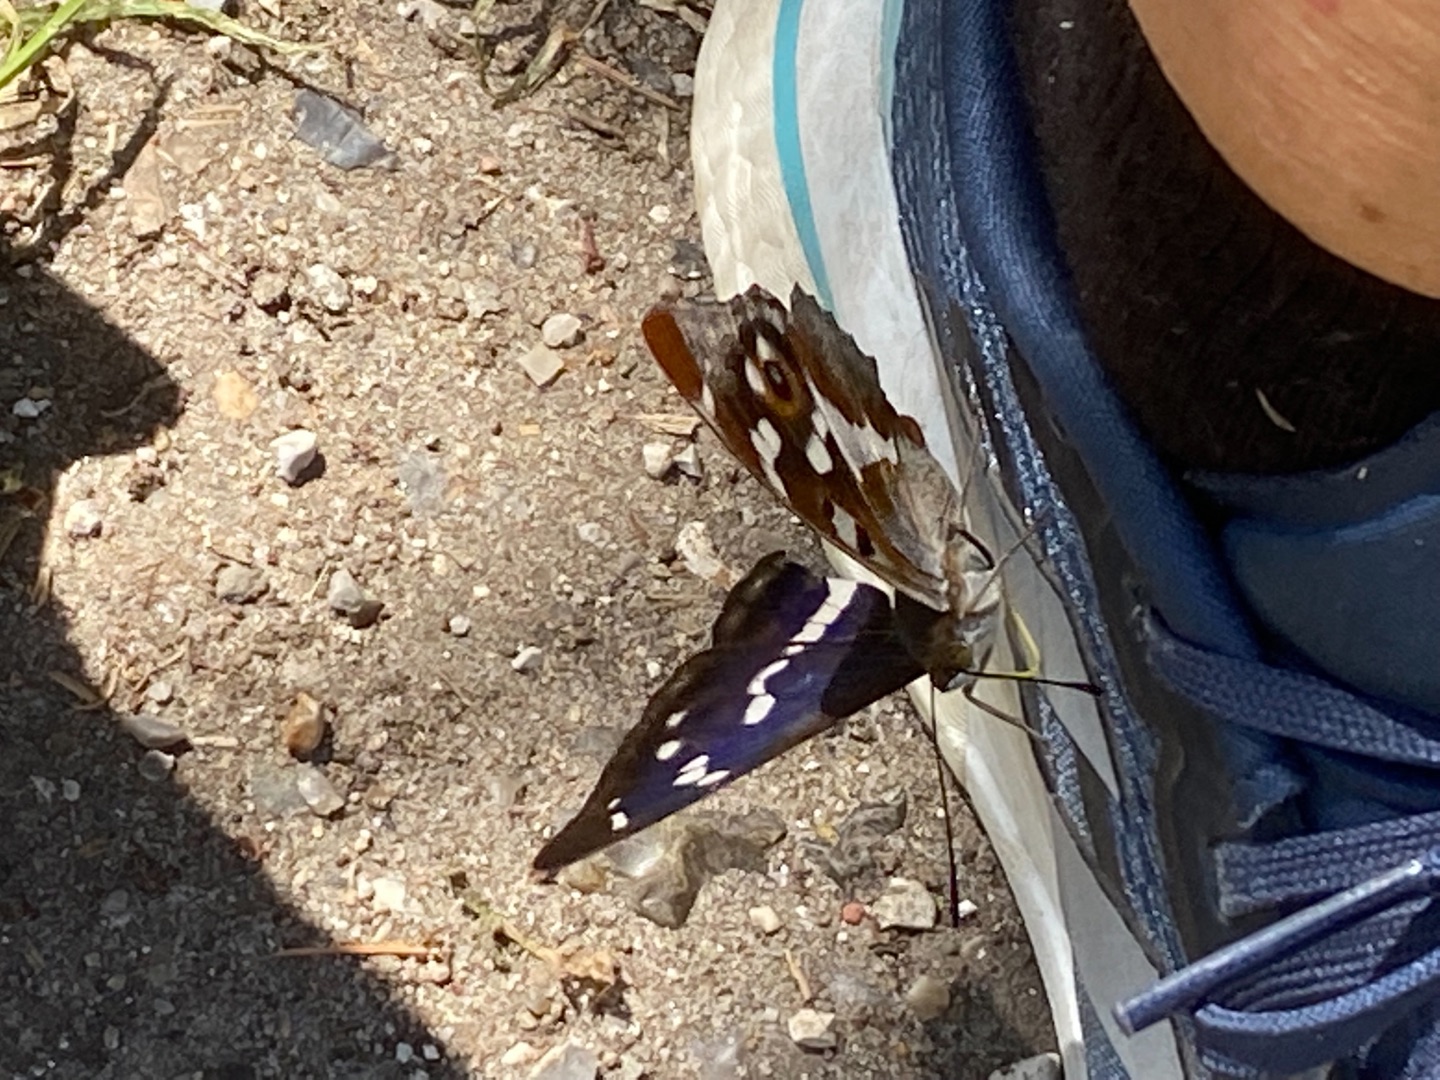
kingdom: Animalia
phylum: Arthropoda
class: Insecta
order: Lepidoptera
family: Nymphalidae
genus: Apatura
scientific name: Apatura iris
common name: Iris
